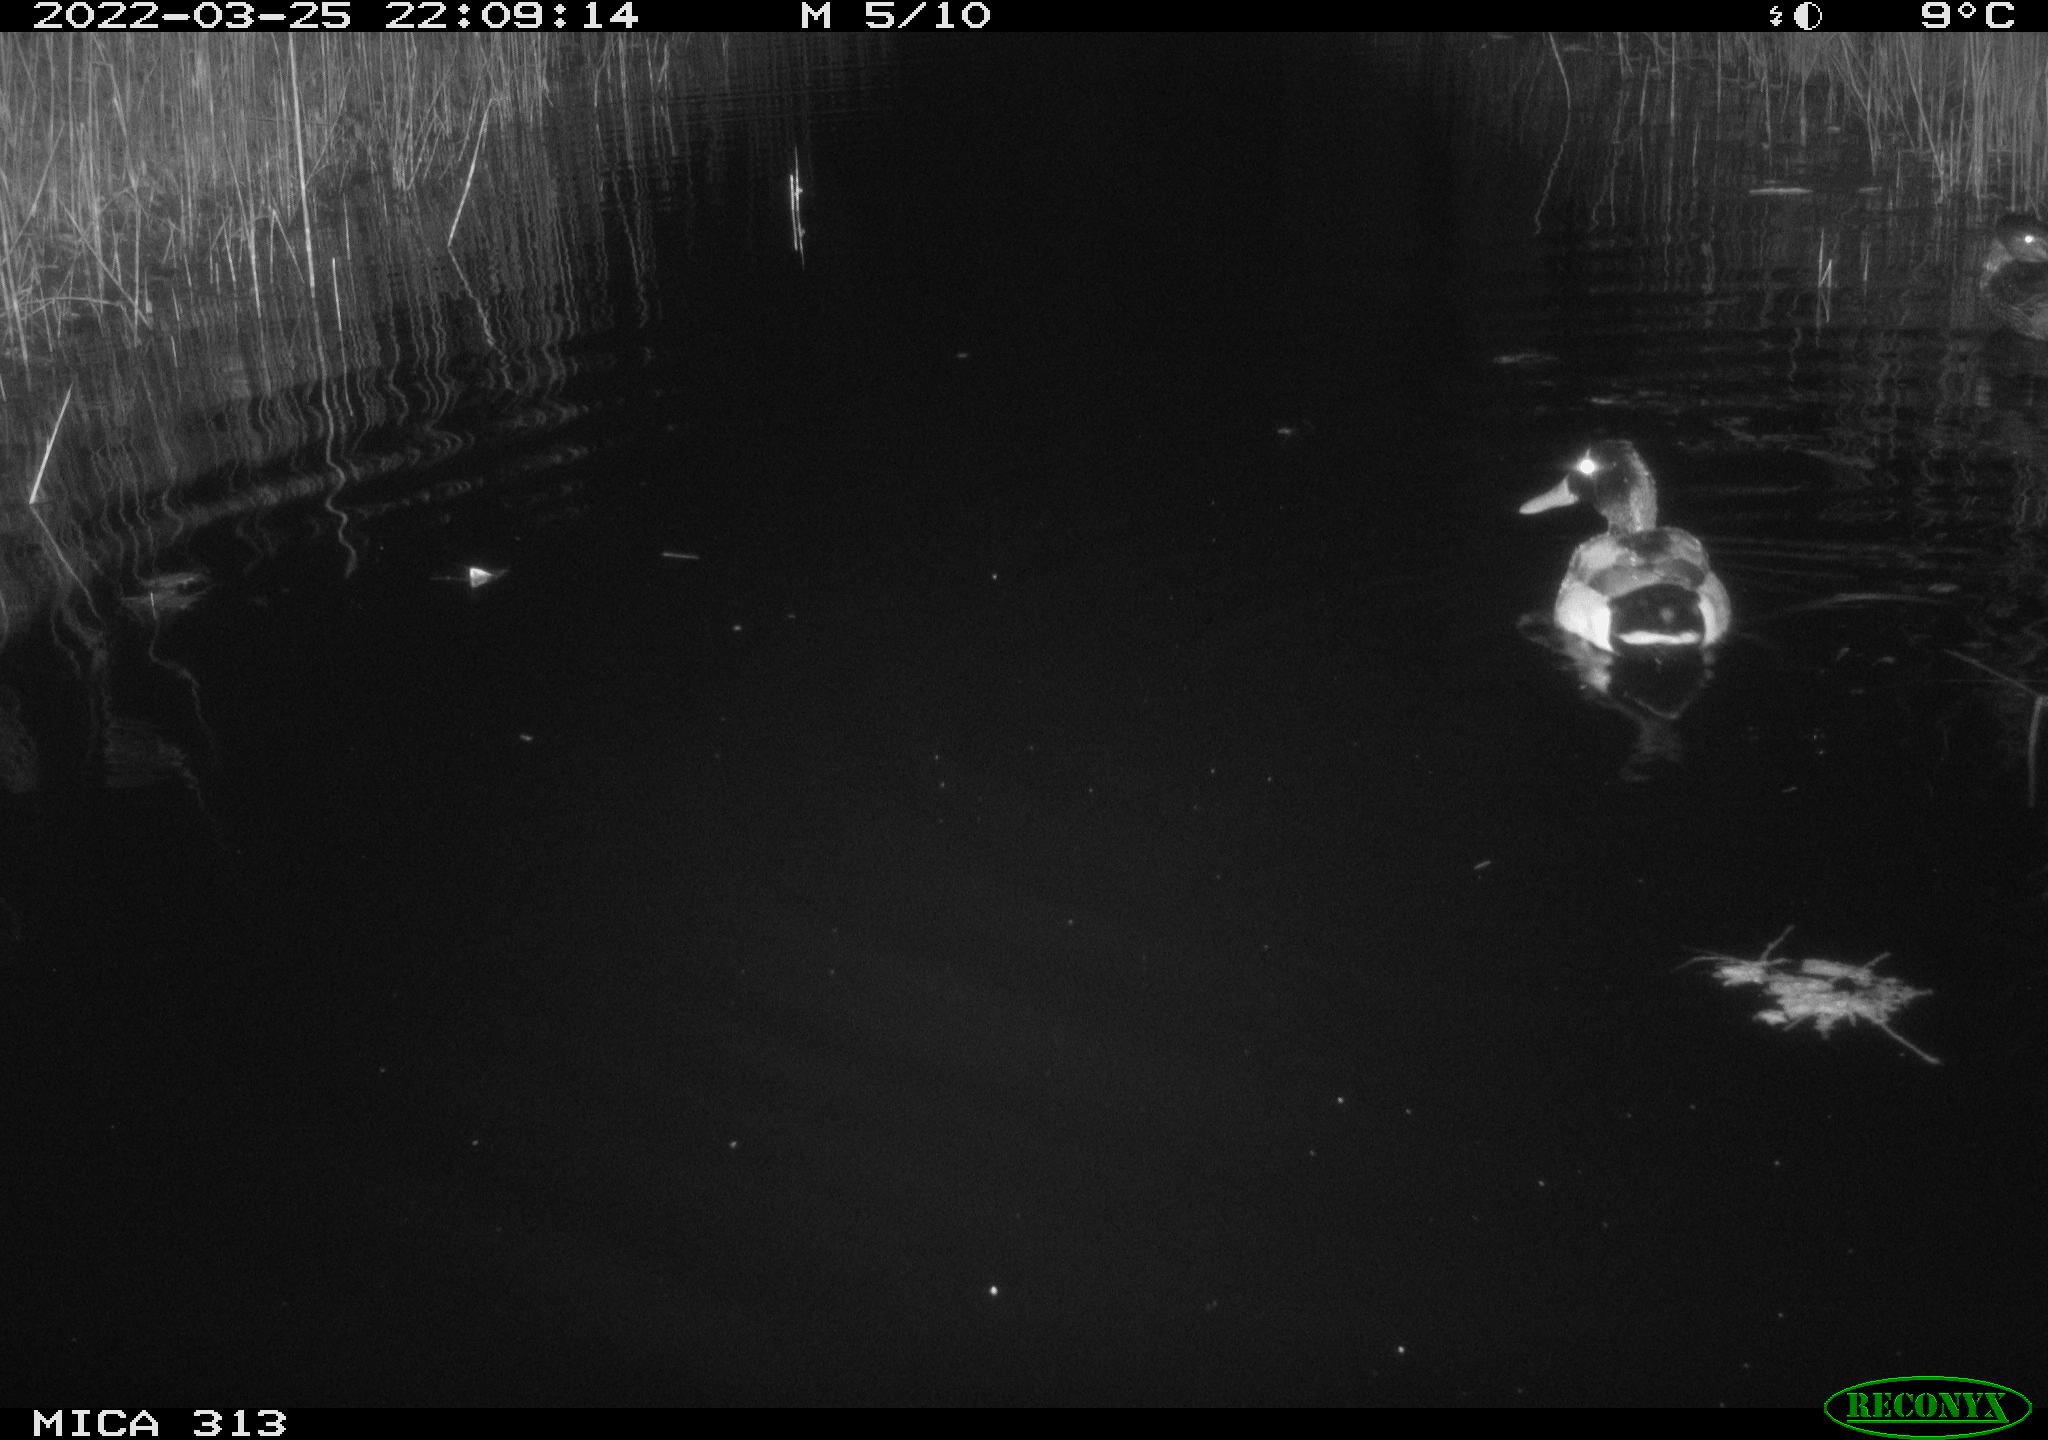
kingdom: Animalia
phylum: Chordata
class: Aves
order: Anseriformes
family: Anatidae
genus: Anas
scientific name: Anas platyrhynchos
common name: Mallard
